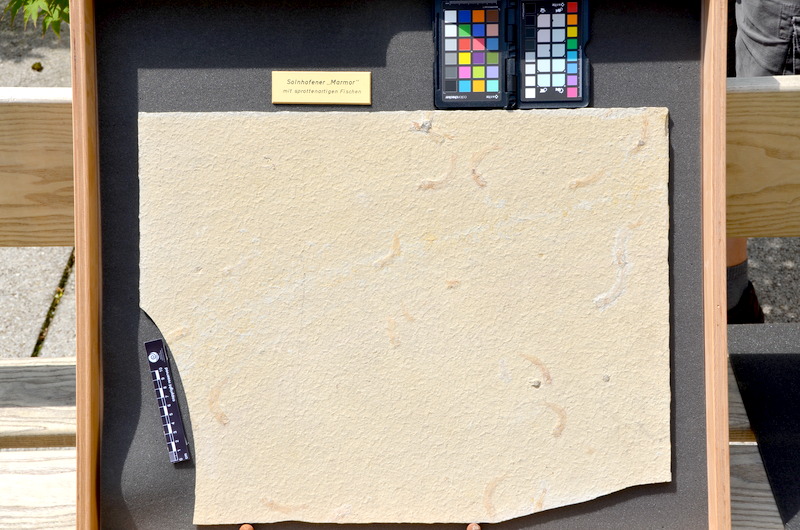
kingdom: Animalia
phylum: Chordata
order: Salmoniformes
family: Orthogonikleithridae
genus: Leptolepides
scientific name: Leptolepides sprattiformis
